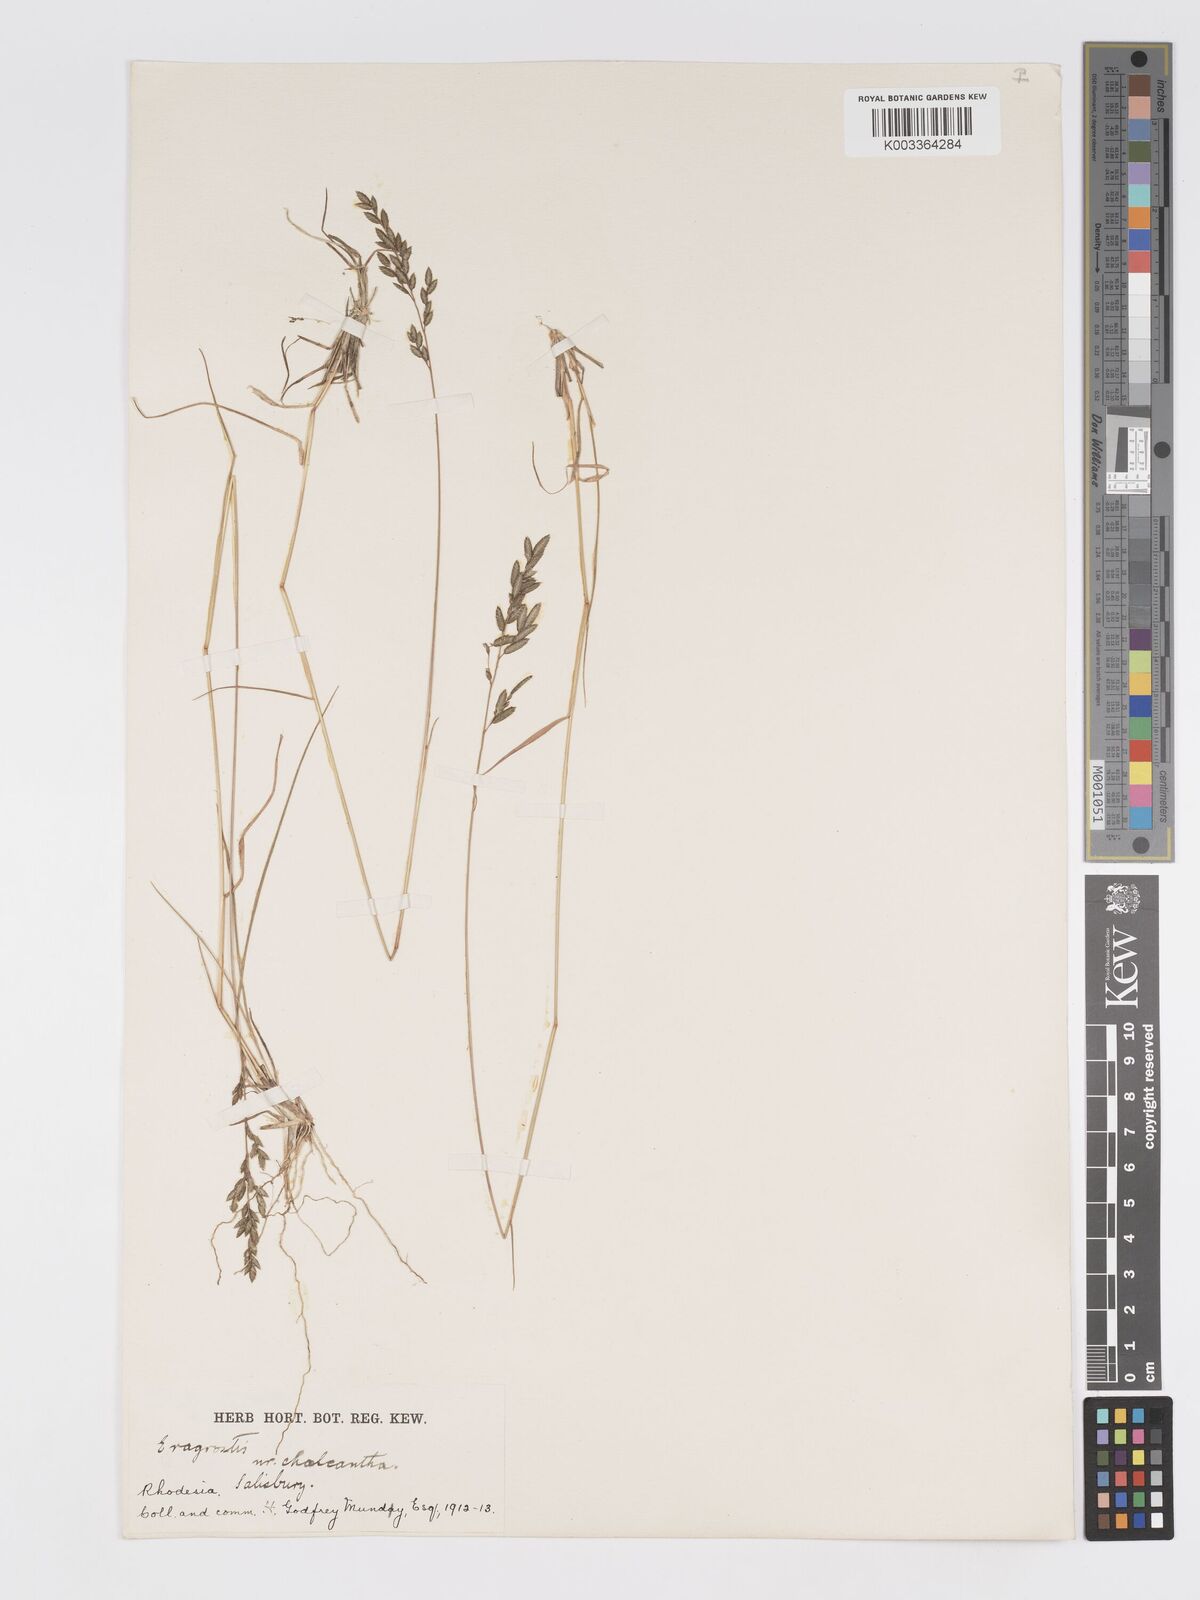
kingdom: Plantae
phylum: Tracheophyta
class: Liliopsida
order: Poales
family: Poaceae
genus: Eragrostis
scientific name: Eragrostis racemosa
